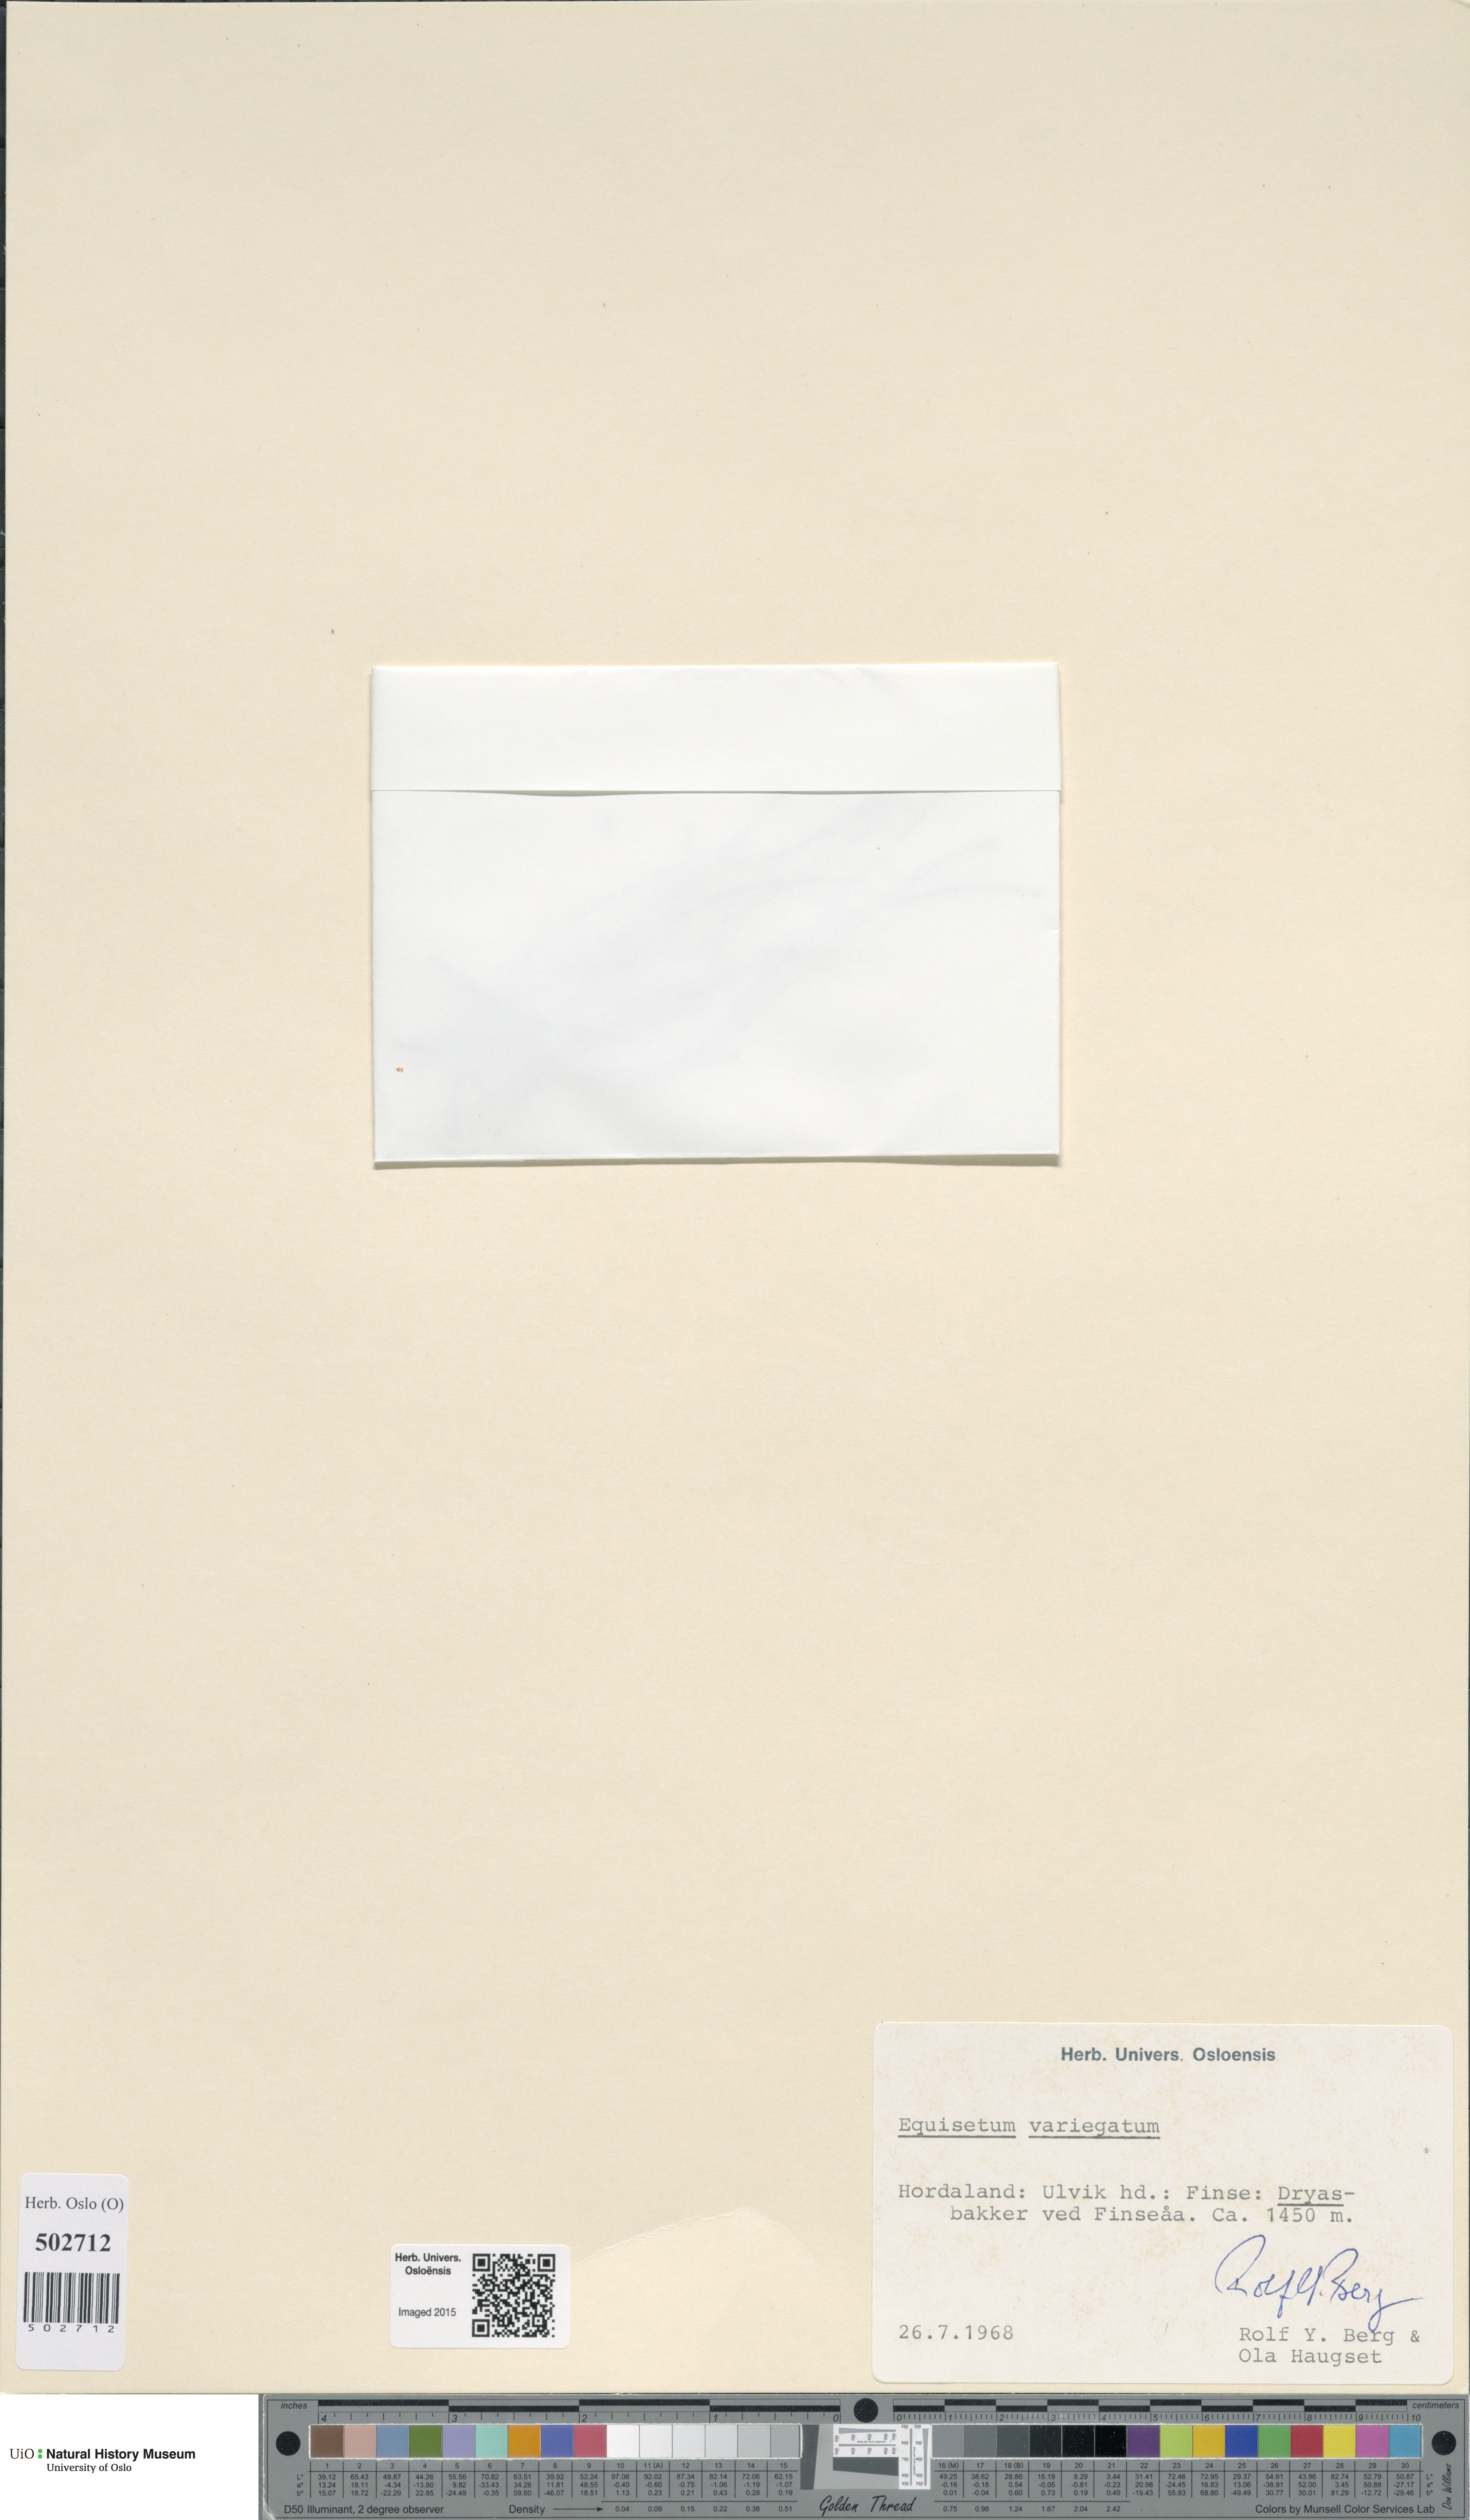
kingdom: Plantae
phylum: Tracheophyta
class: Polypodiopsida
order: Equisetales
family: Equisetaceae
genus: Equisetum
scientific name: Equisetum variegatum
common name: Variegated horsetail
